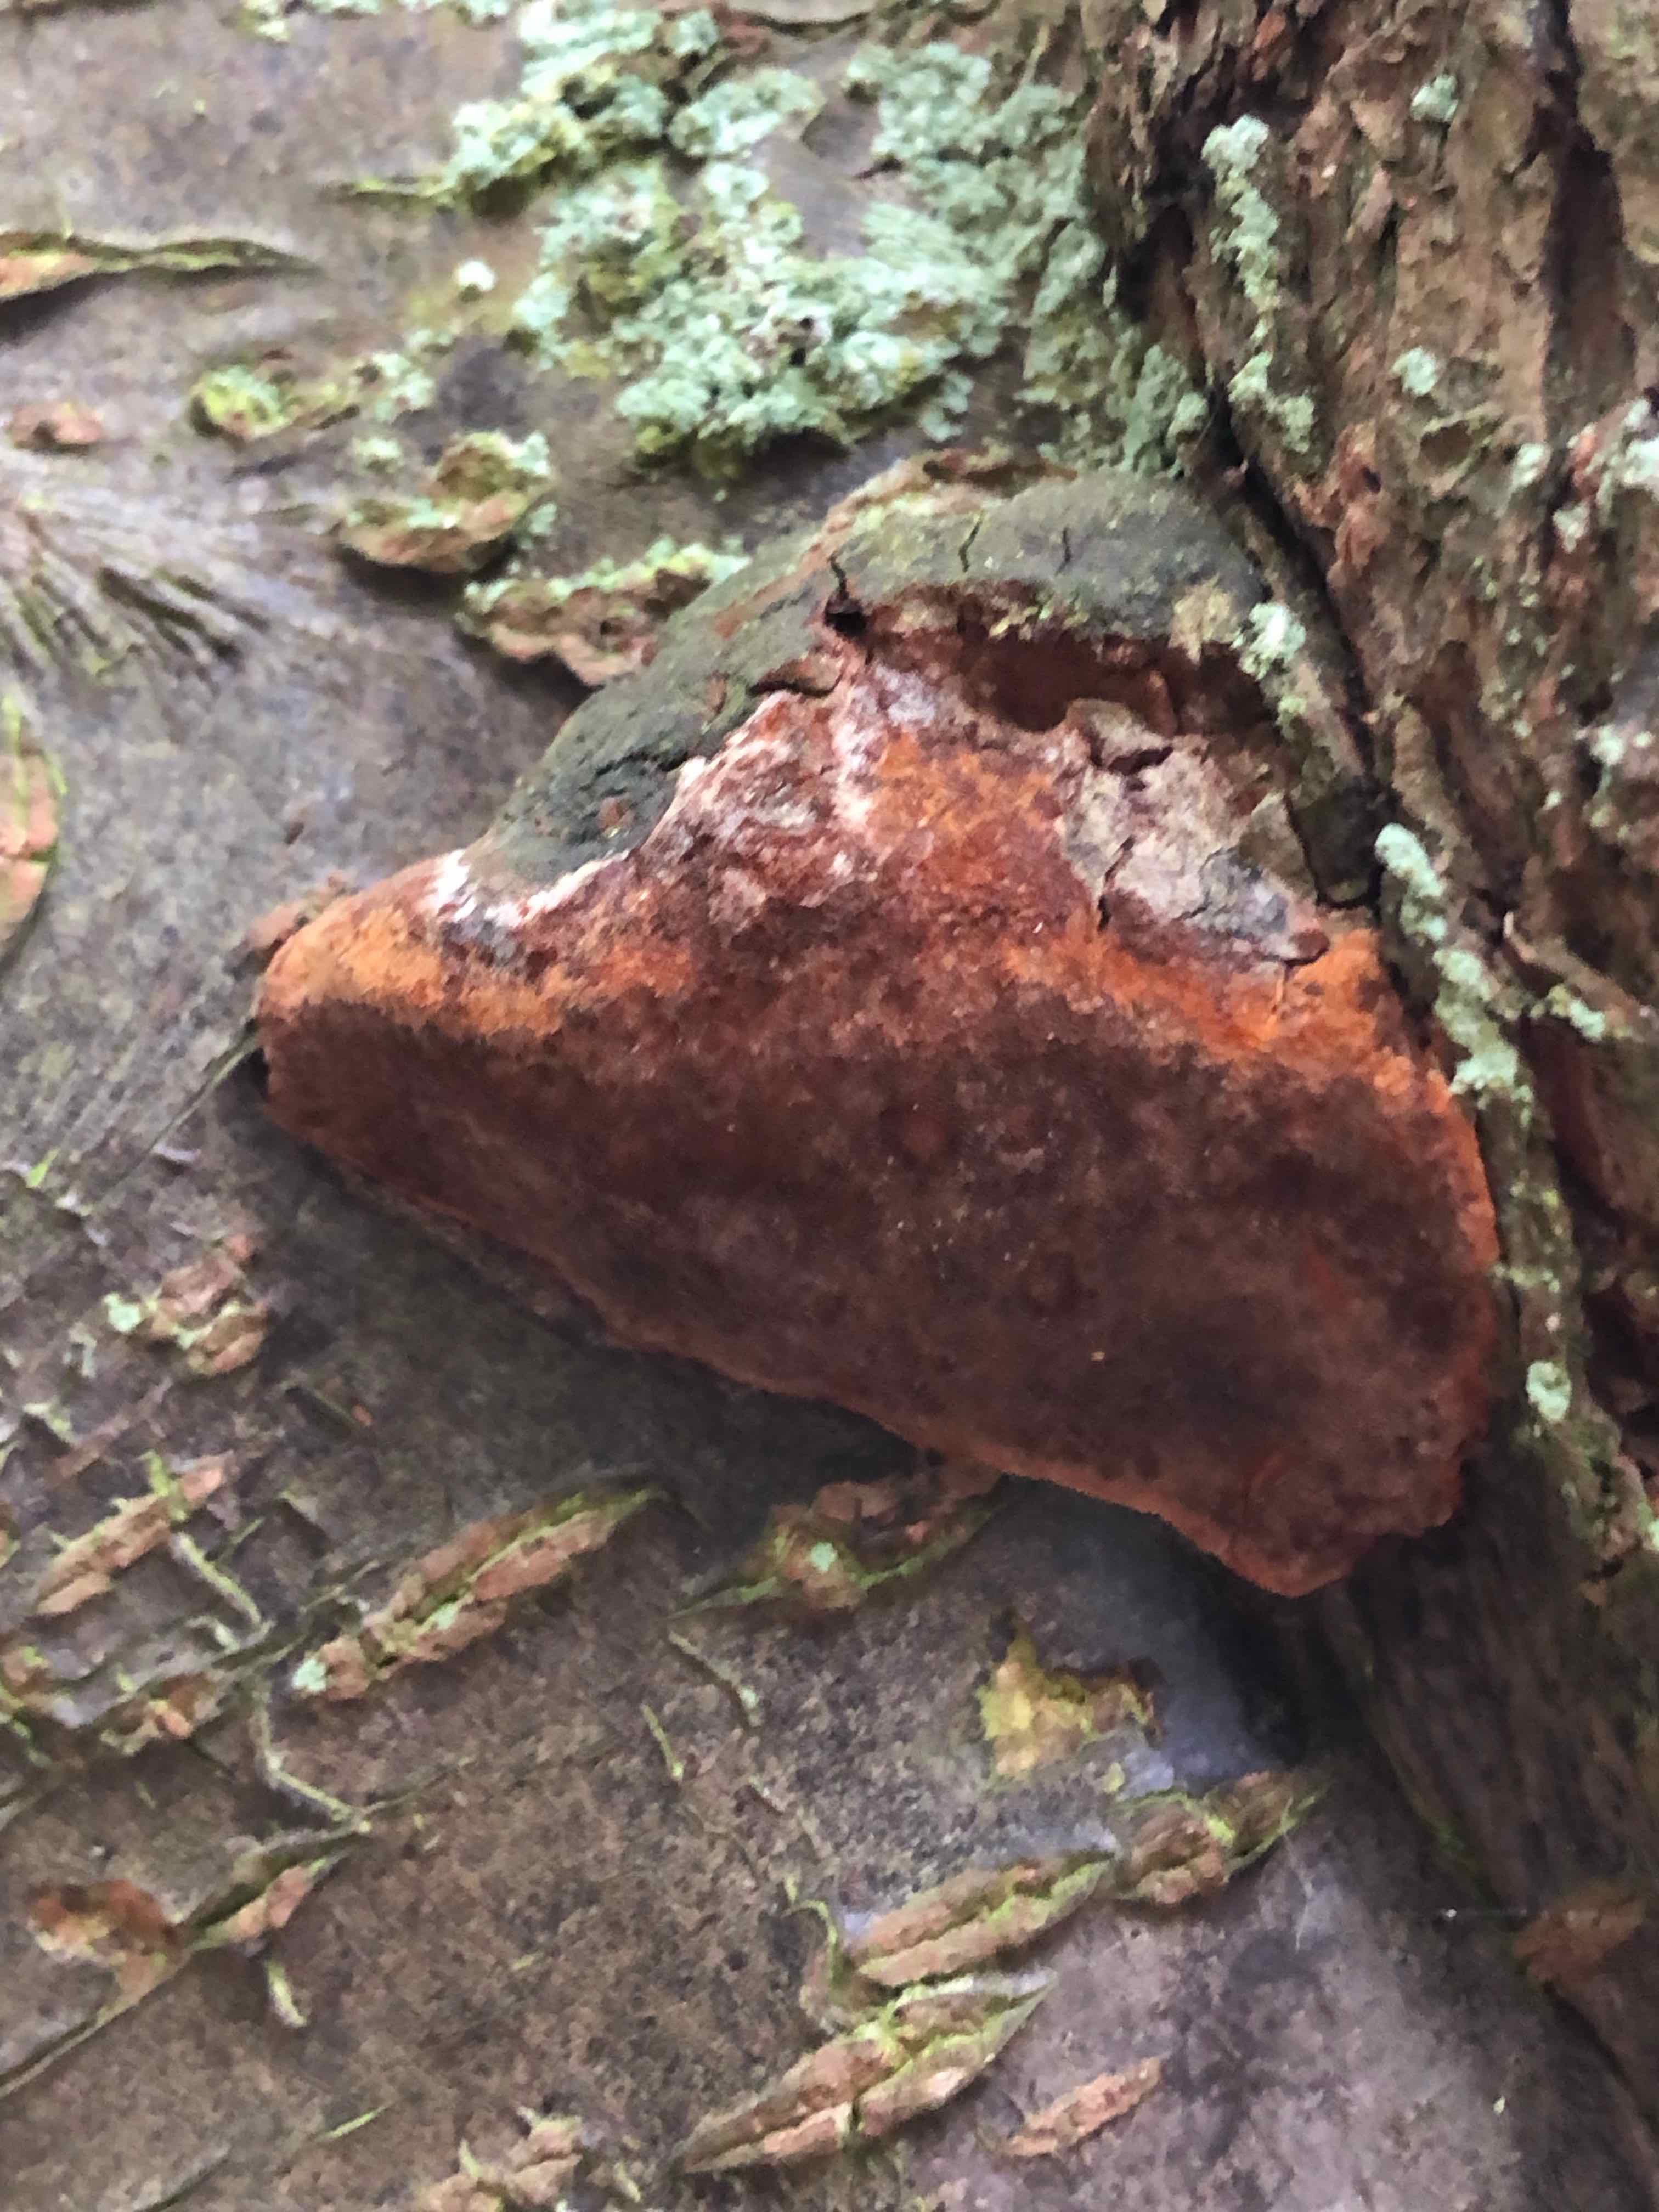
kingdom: Fungi
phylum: Basidiomycota
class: Agaricomycetes
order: Hymenochaetales
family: Hymenochaetaceae
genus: Phellinus
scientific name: Phellinus pomaceus
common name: blomme-ildporesvamp
